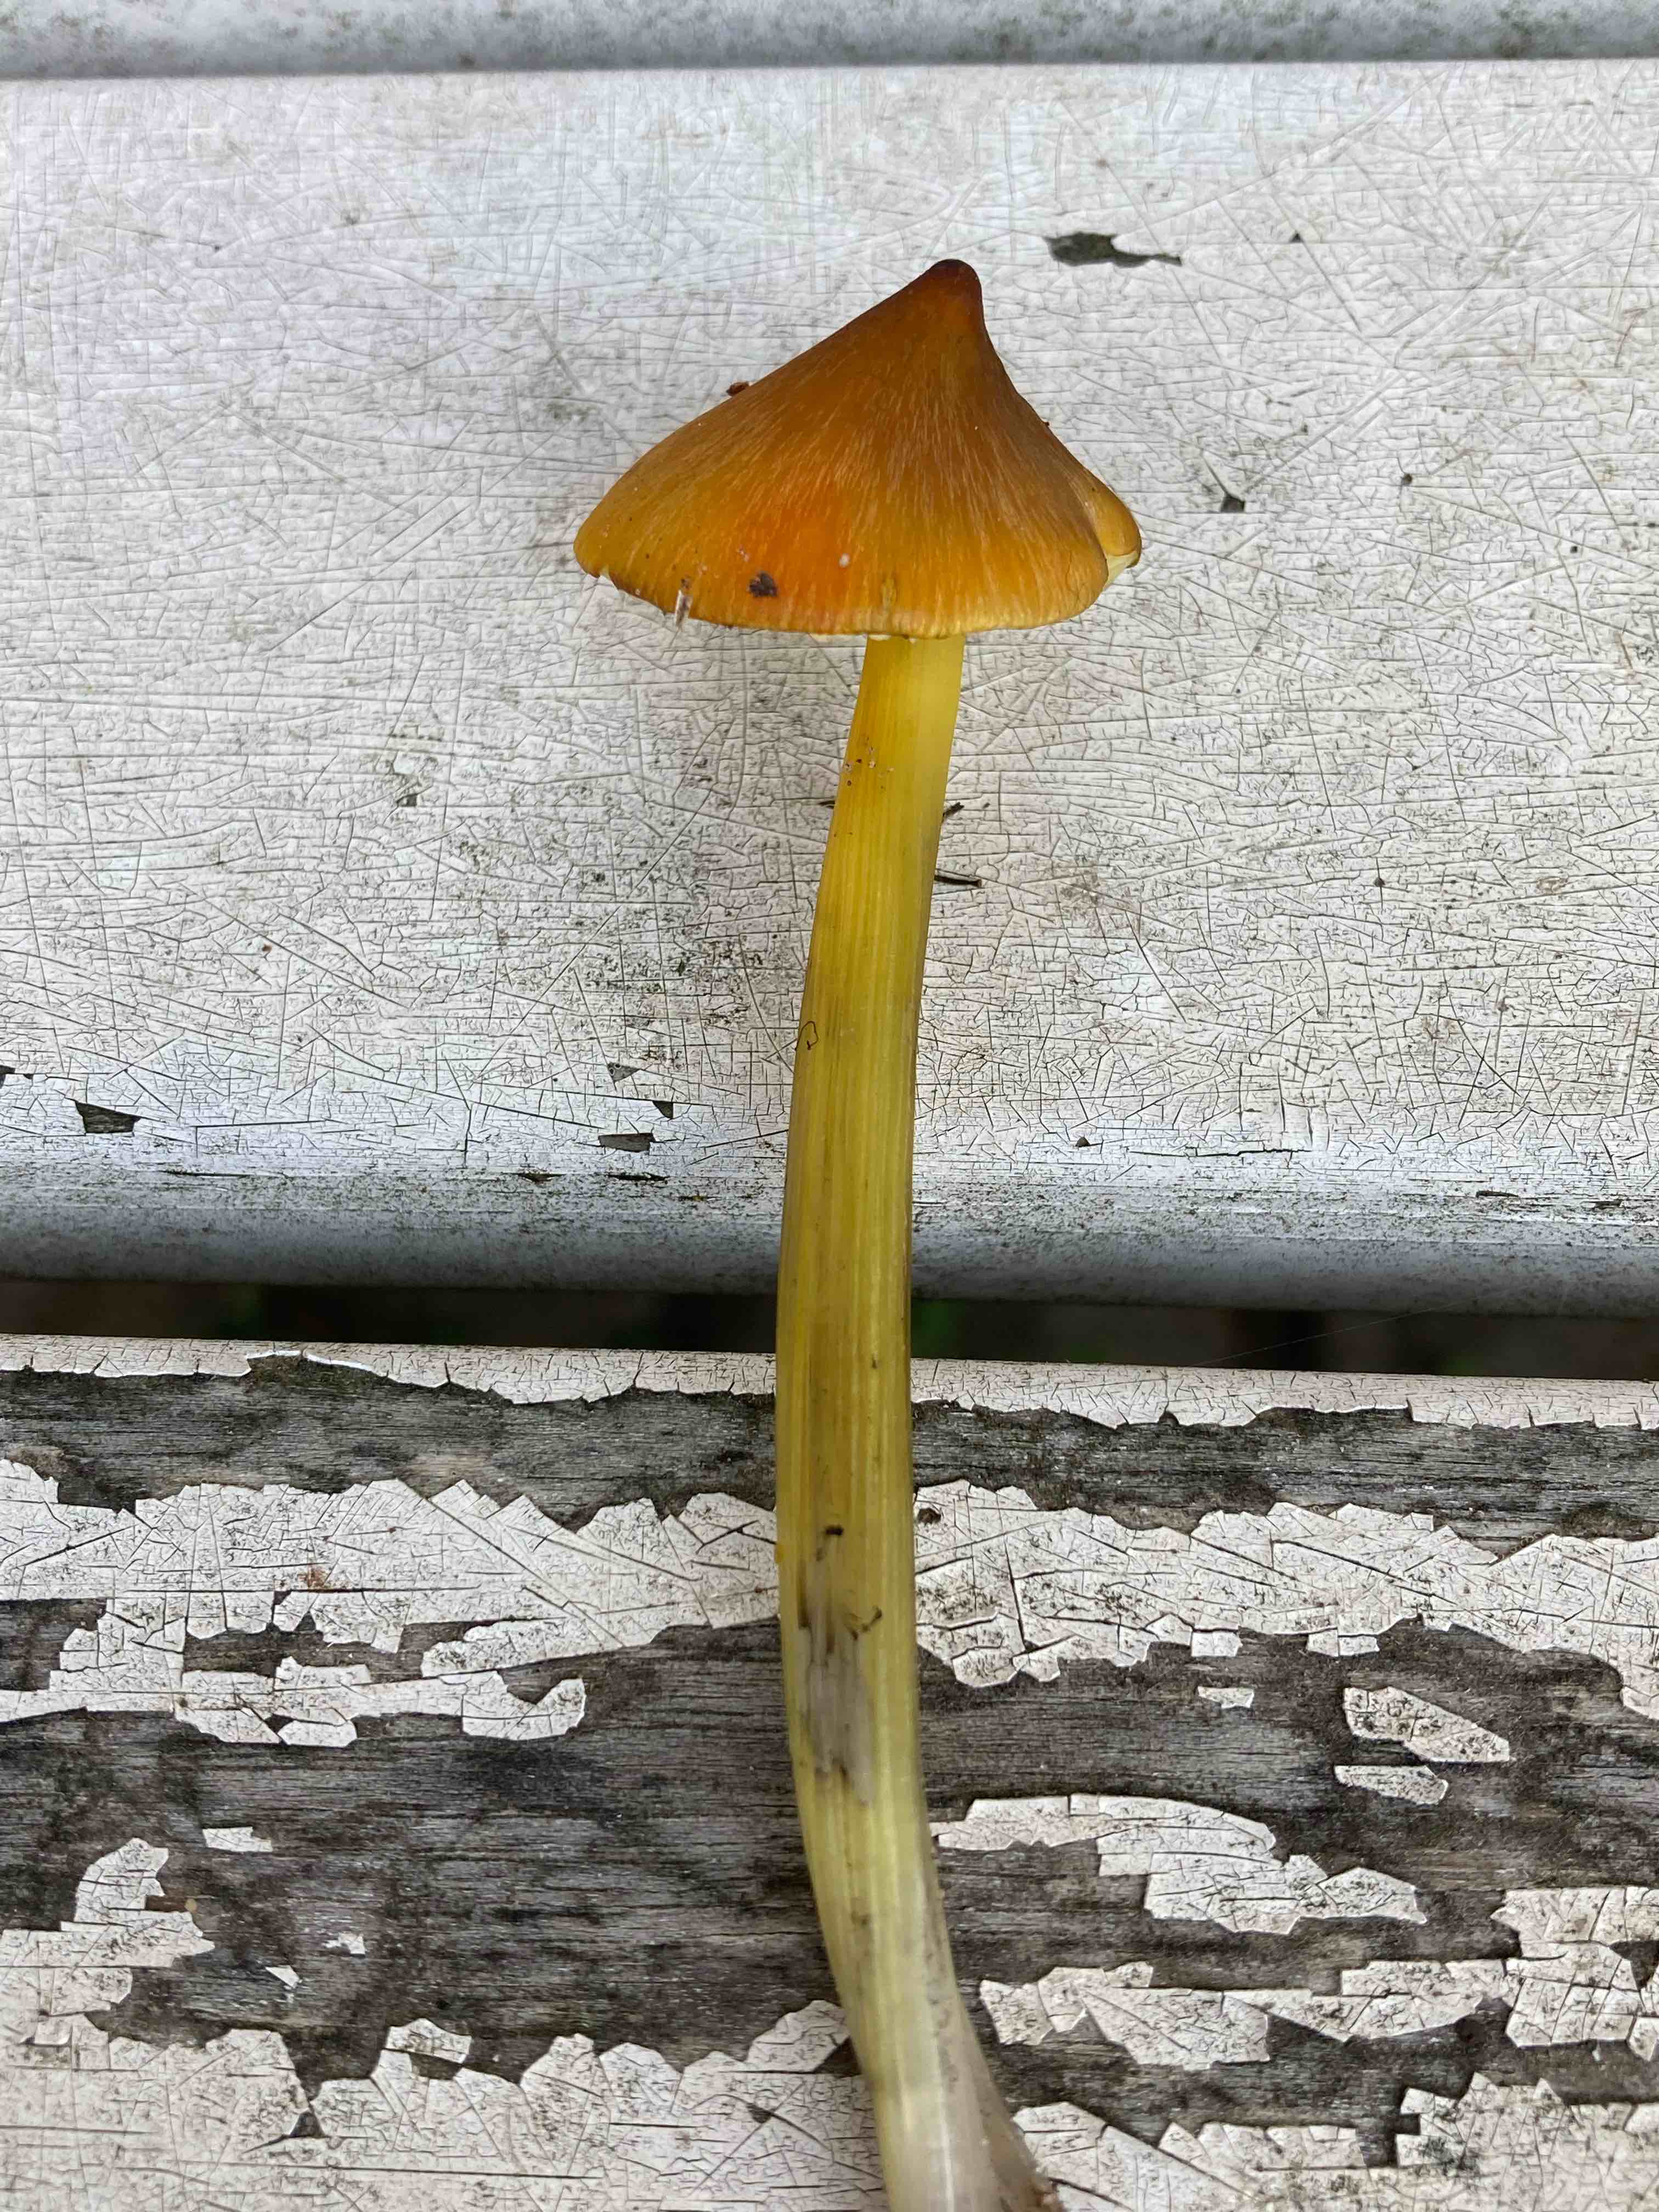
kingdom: Fungi
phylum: Basidiomycota
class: Agaricomycetes
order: Agaricales
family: Hygrophoraceae
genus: Hygrocybe
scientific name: Hygrocybe conica
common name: kegle-vokshat
